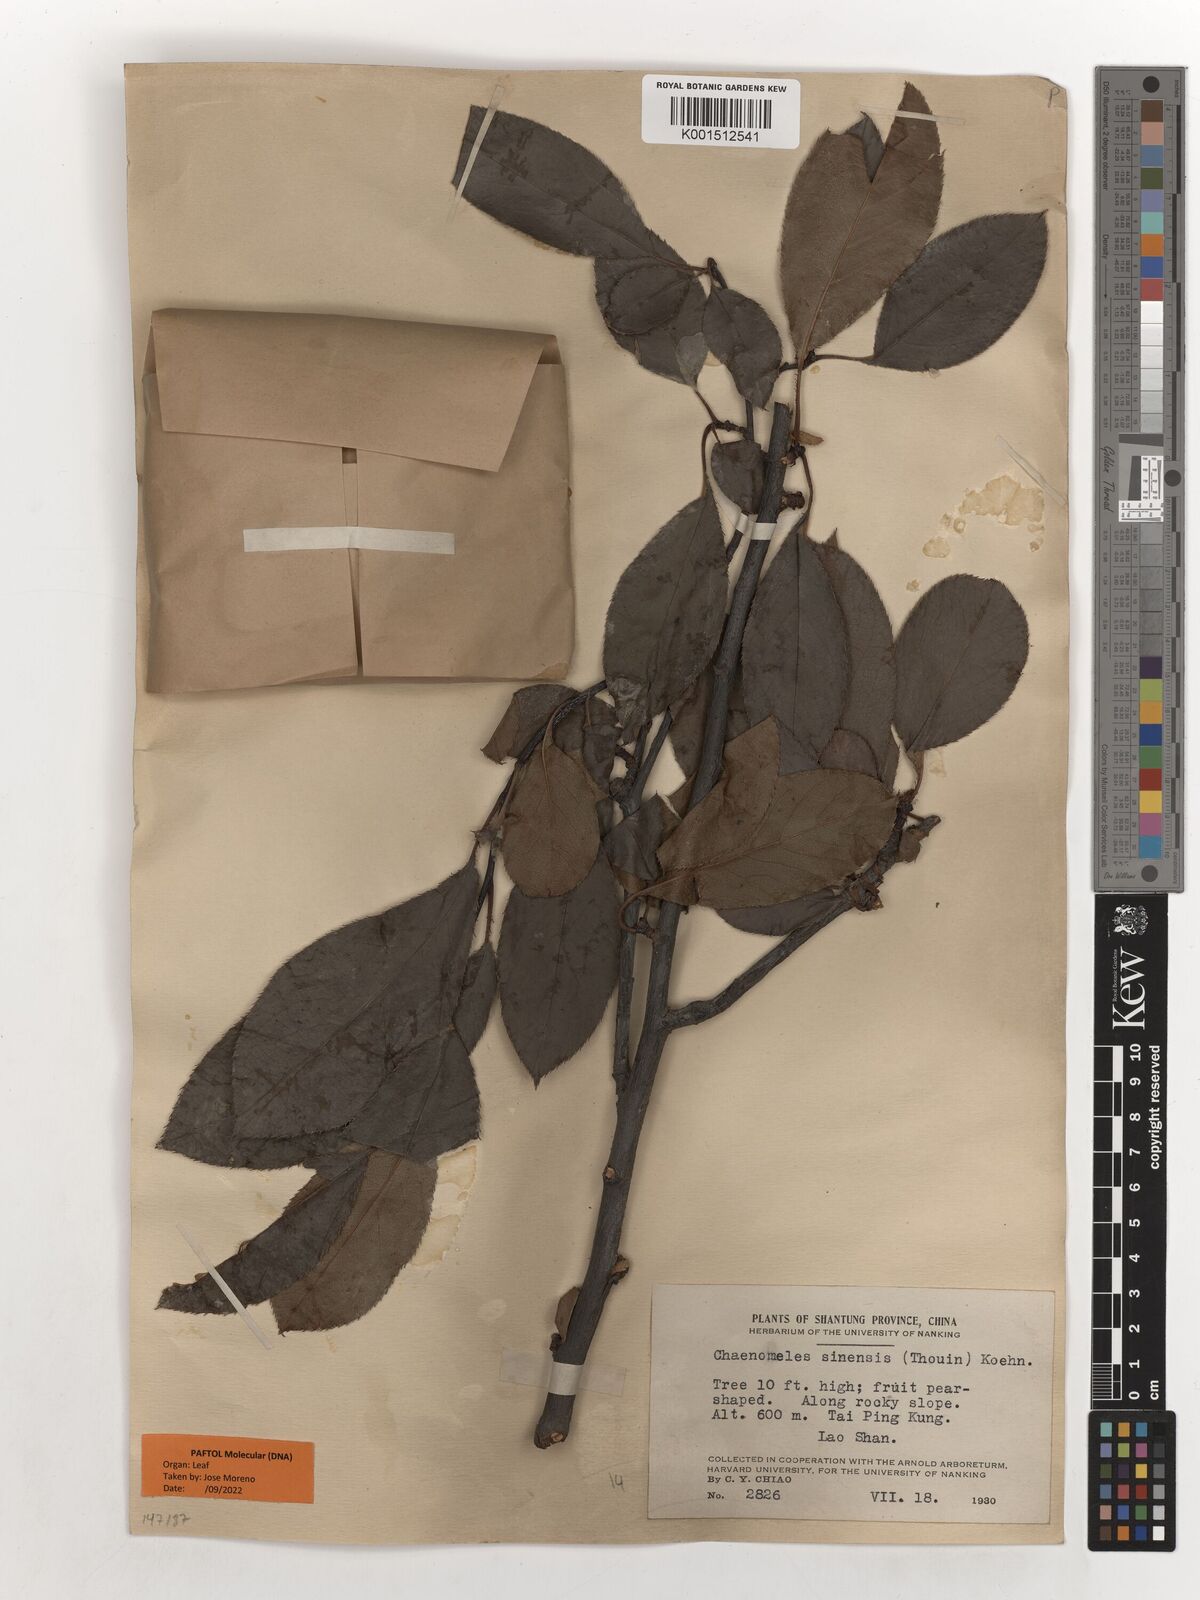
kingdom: Plantae
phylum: Tracheophyta
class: Magnoliopsida
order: Rosales
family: Rosaceae
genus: Pseudocydonia
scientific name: Pseudocydonia sinensis
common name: Chinese-quince
